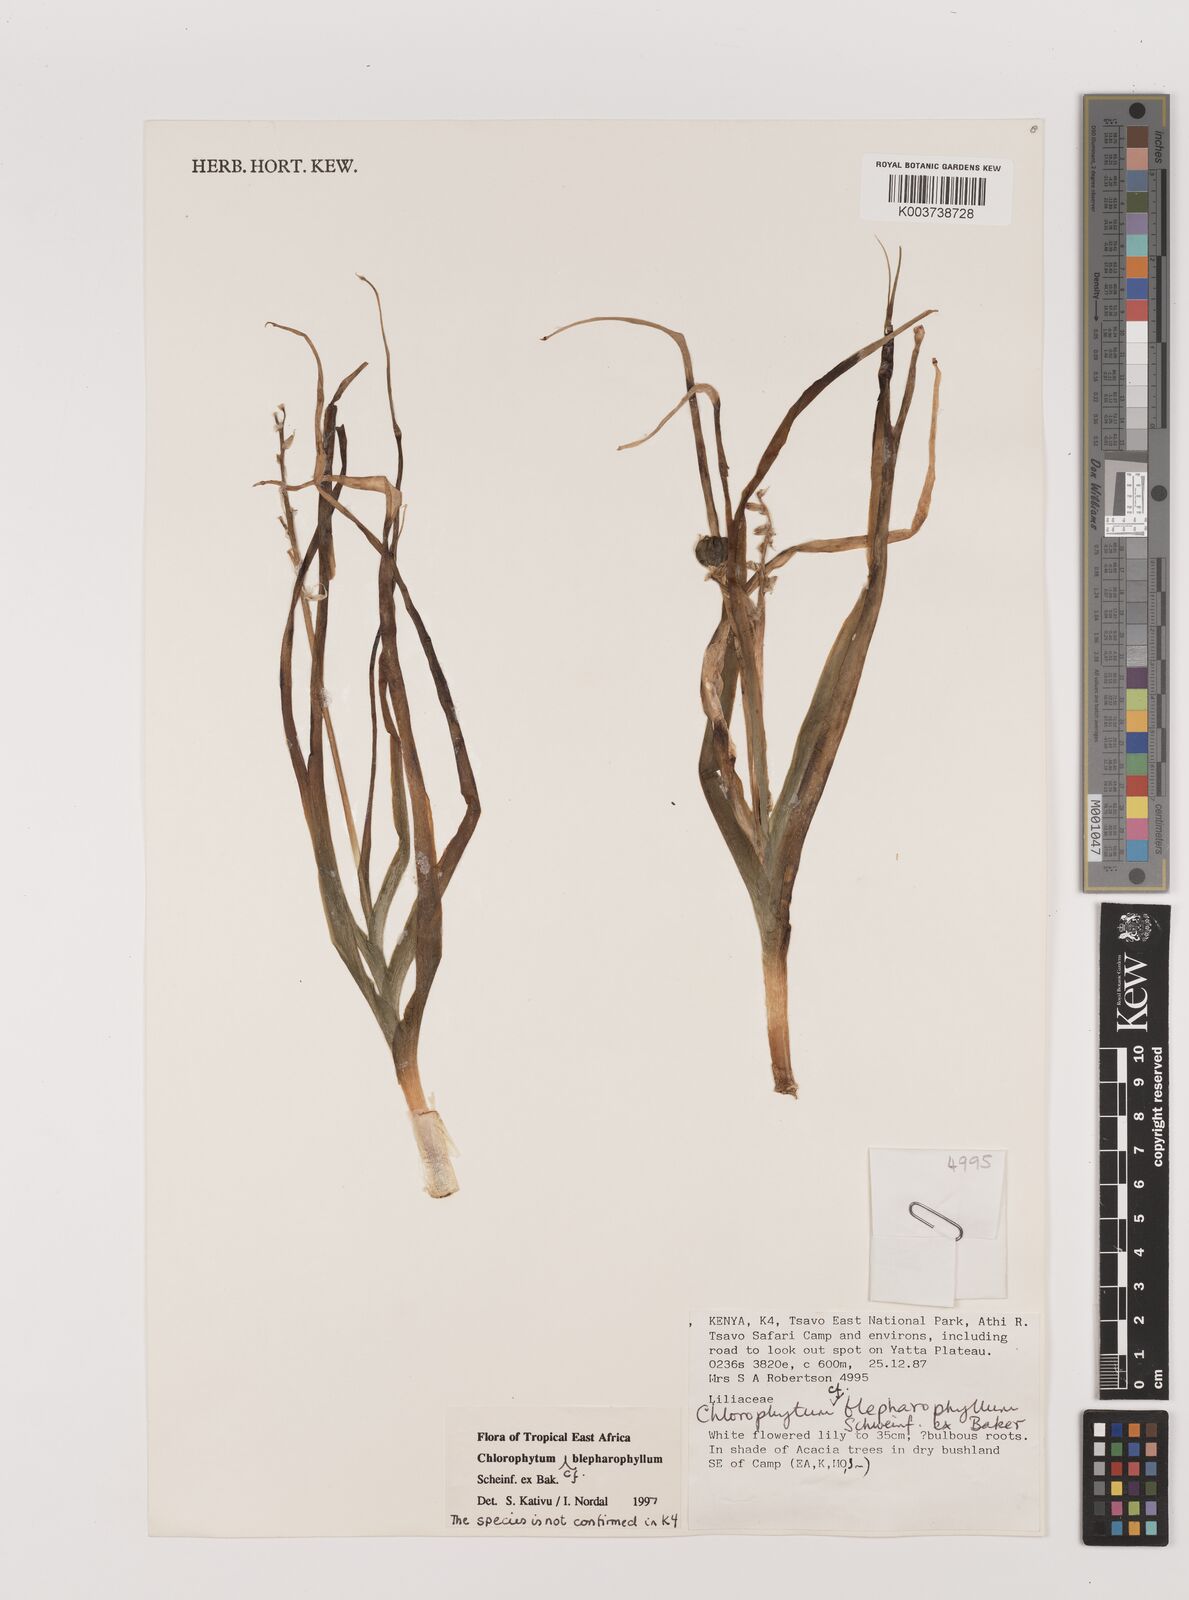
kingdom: Plantae
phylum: Tracheophyta
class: Liliopsida
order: Asparagales
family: Asparagaceae
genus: Chlorophytum
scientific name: Chlorophytum blepharophyllum
